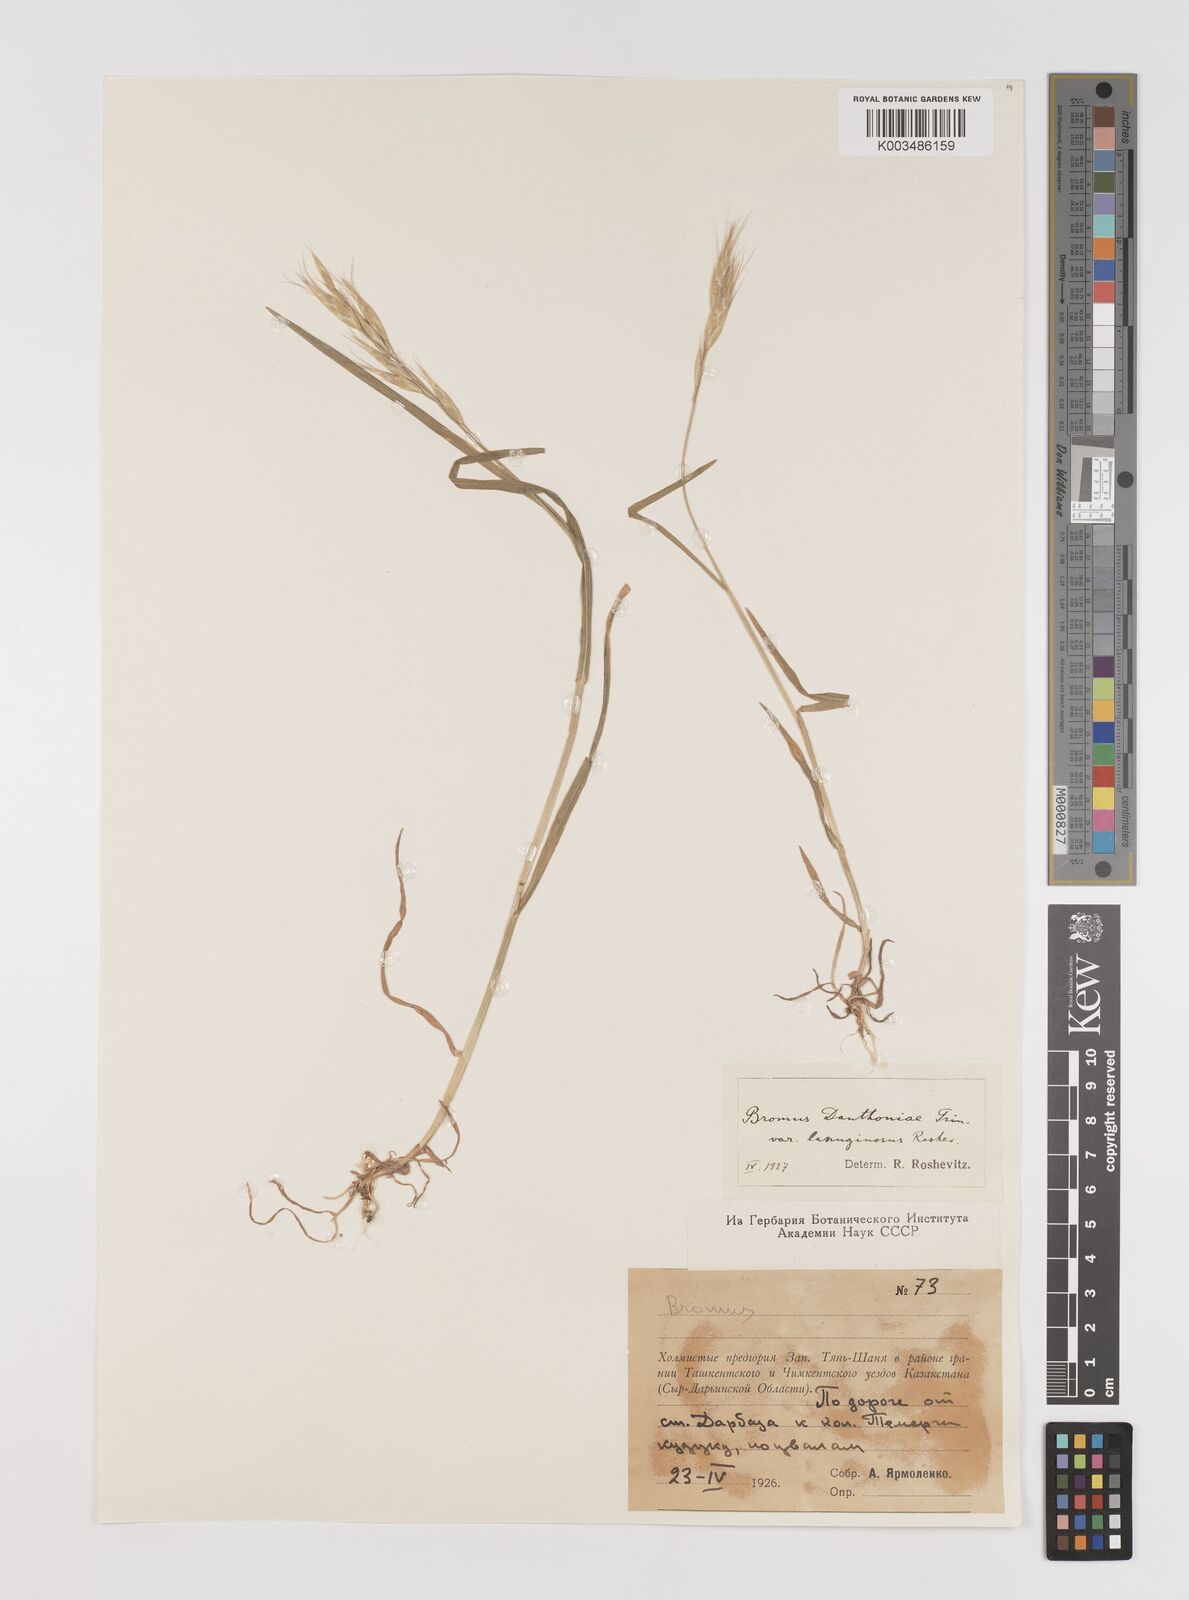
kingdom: Plantae
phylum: Tracheophyta
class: Liliopsida
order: Poales
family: Poaceae
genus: Bromus
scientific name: Bromus danthoniae
